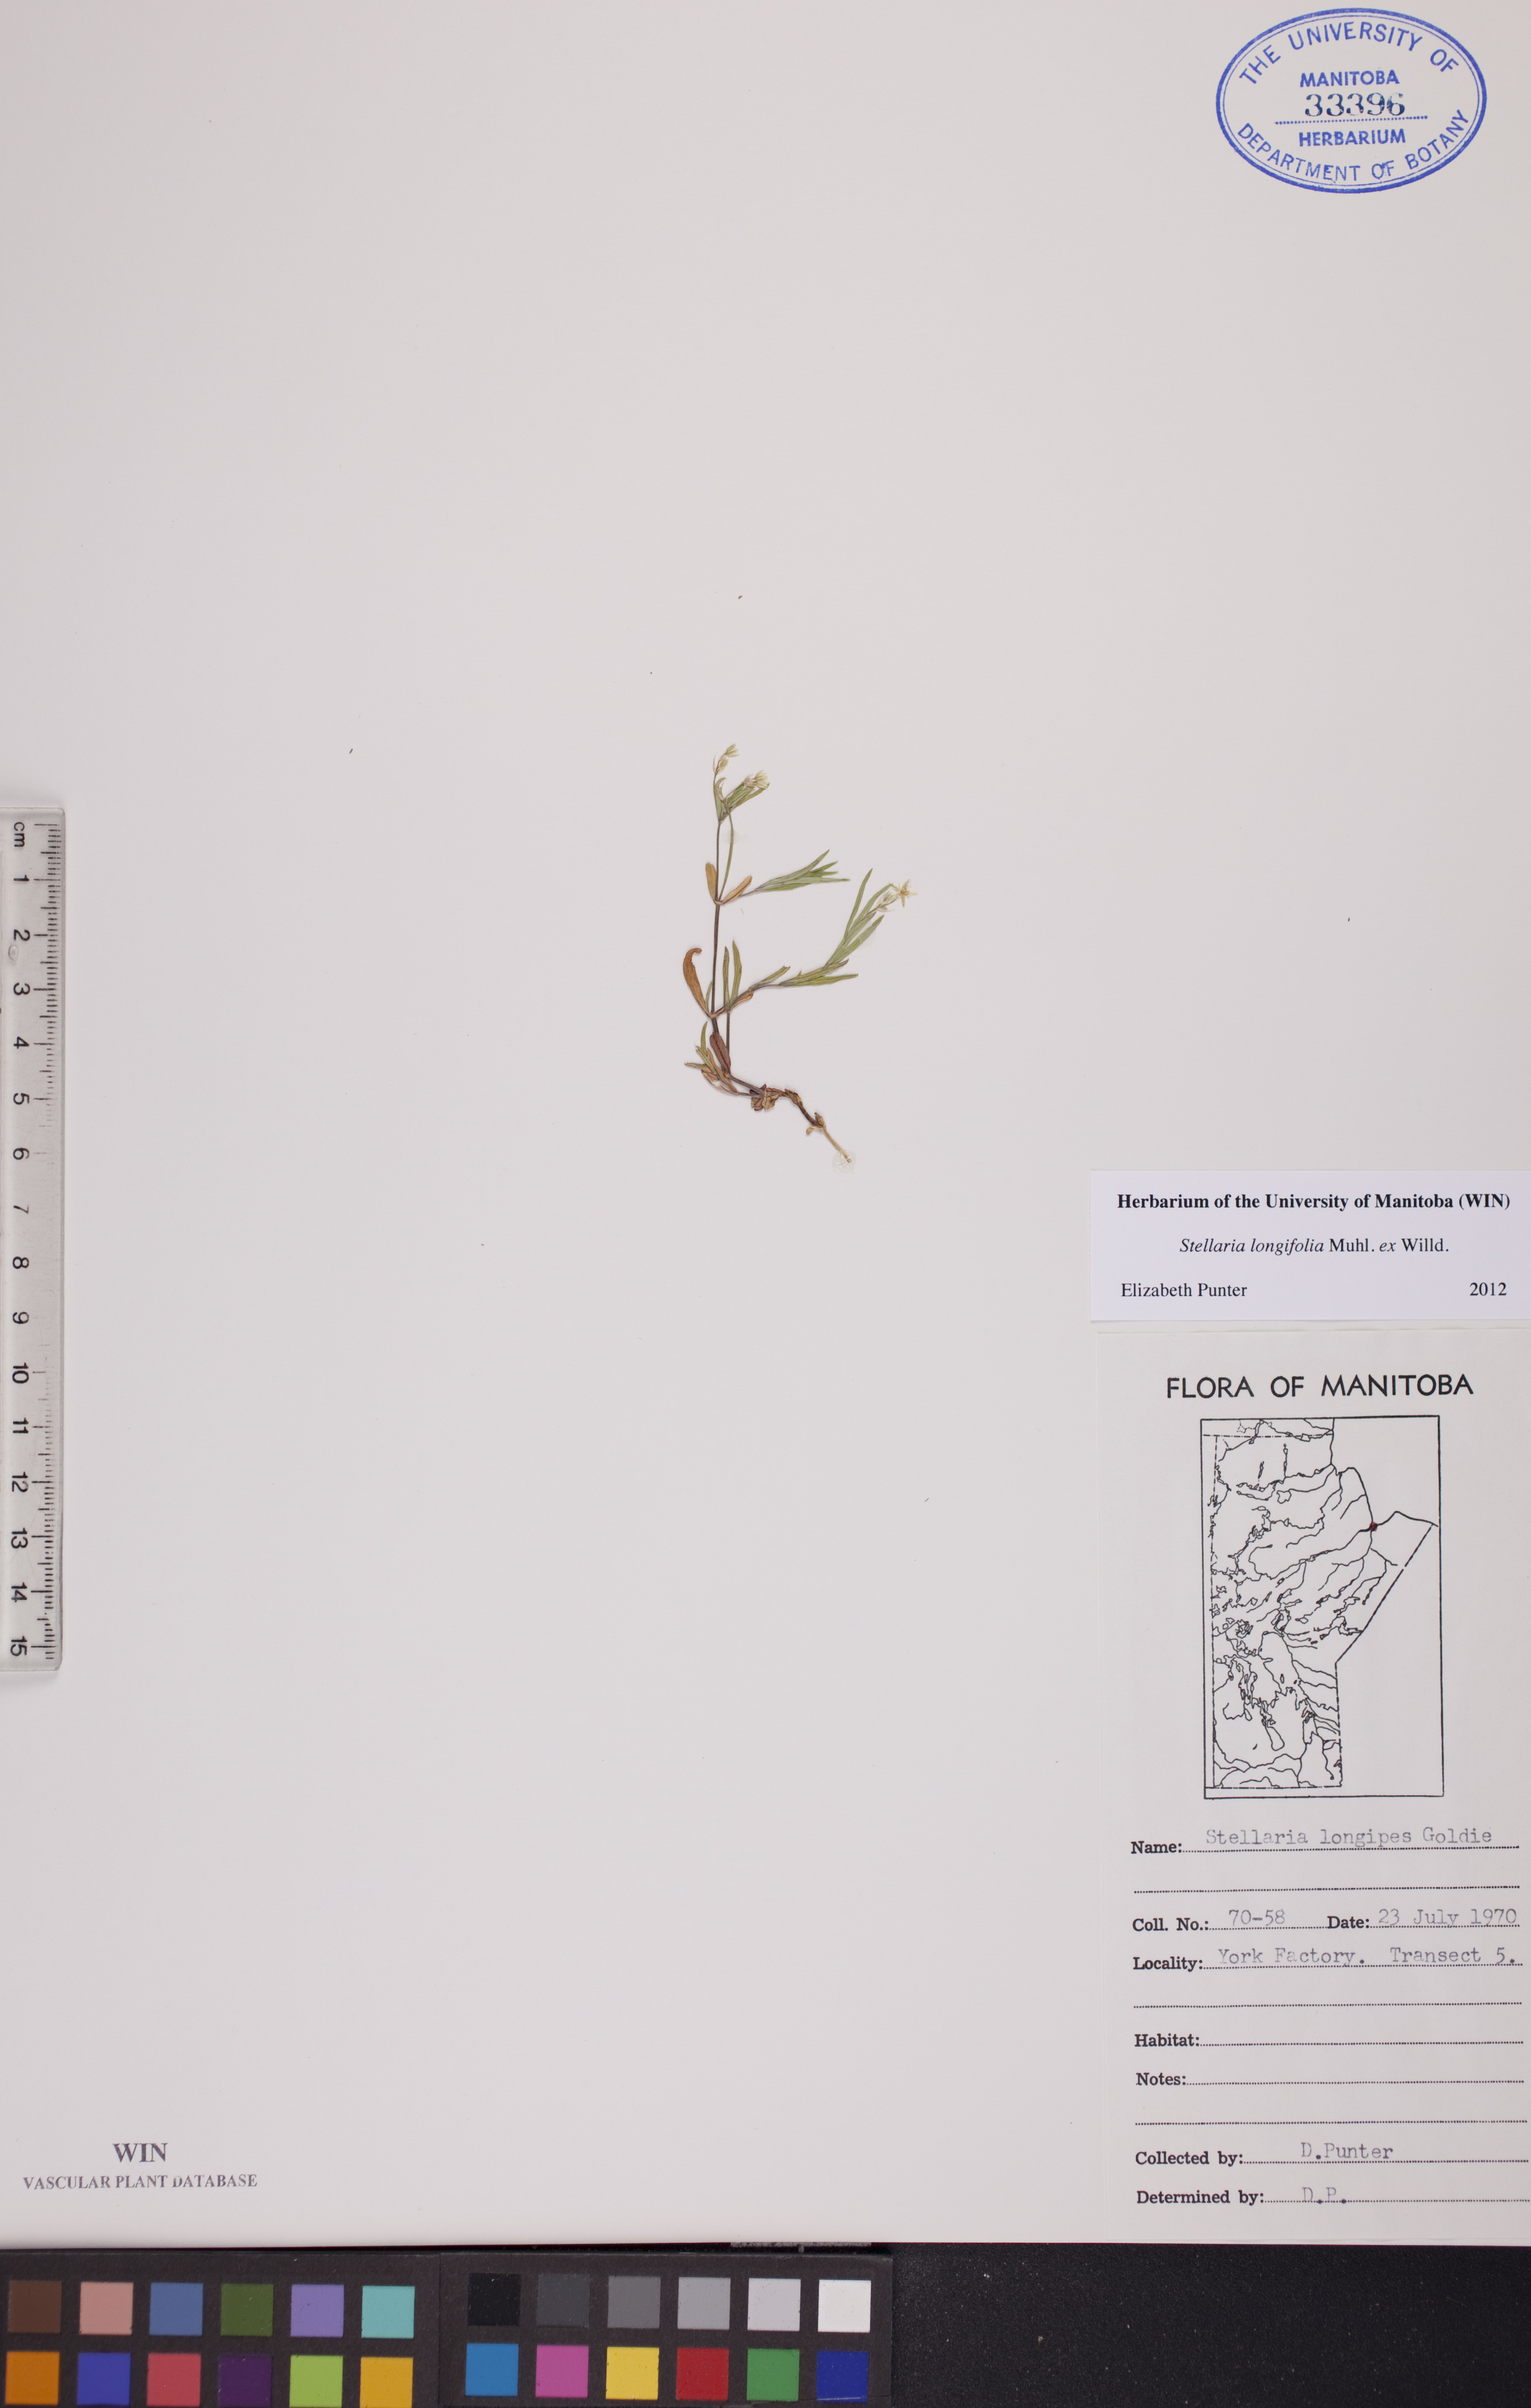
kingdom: Plantae
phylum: Tracheophyta
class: Magnoliopsida
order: Caryophyllales
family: Caryophyllaceae
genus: Stellaria
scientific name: Stellaria longifolia
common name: Long-leaved chickweed
